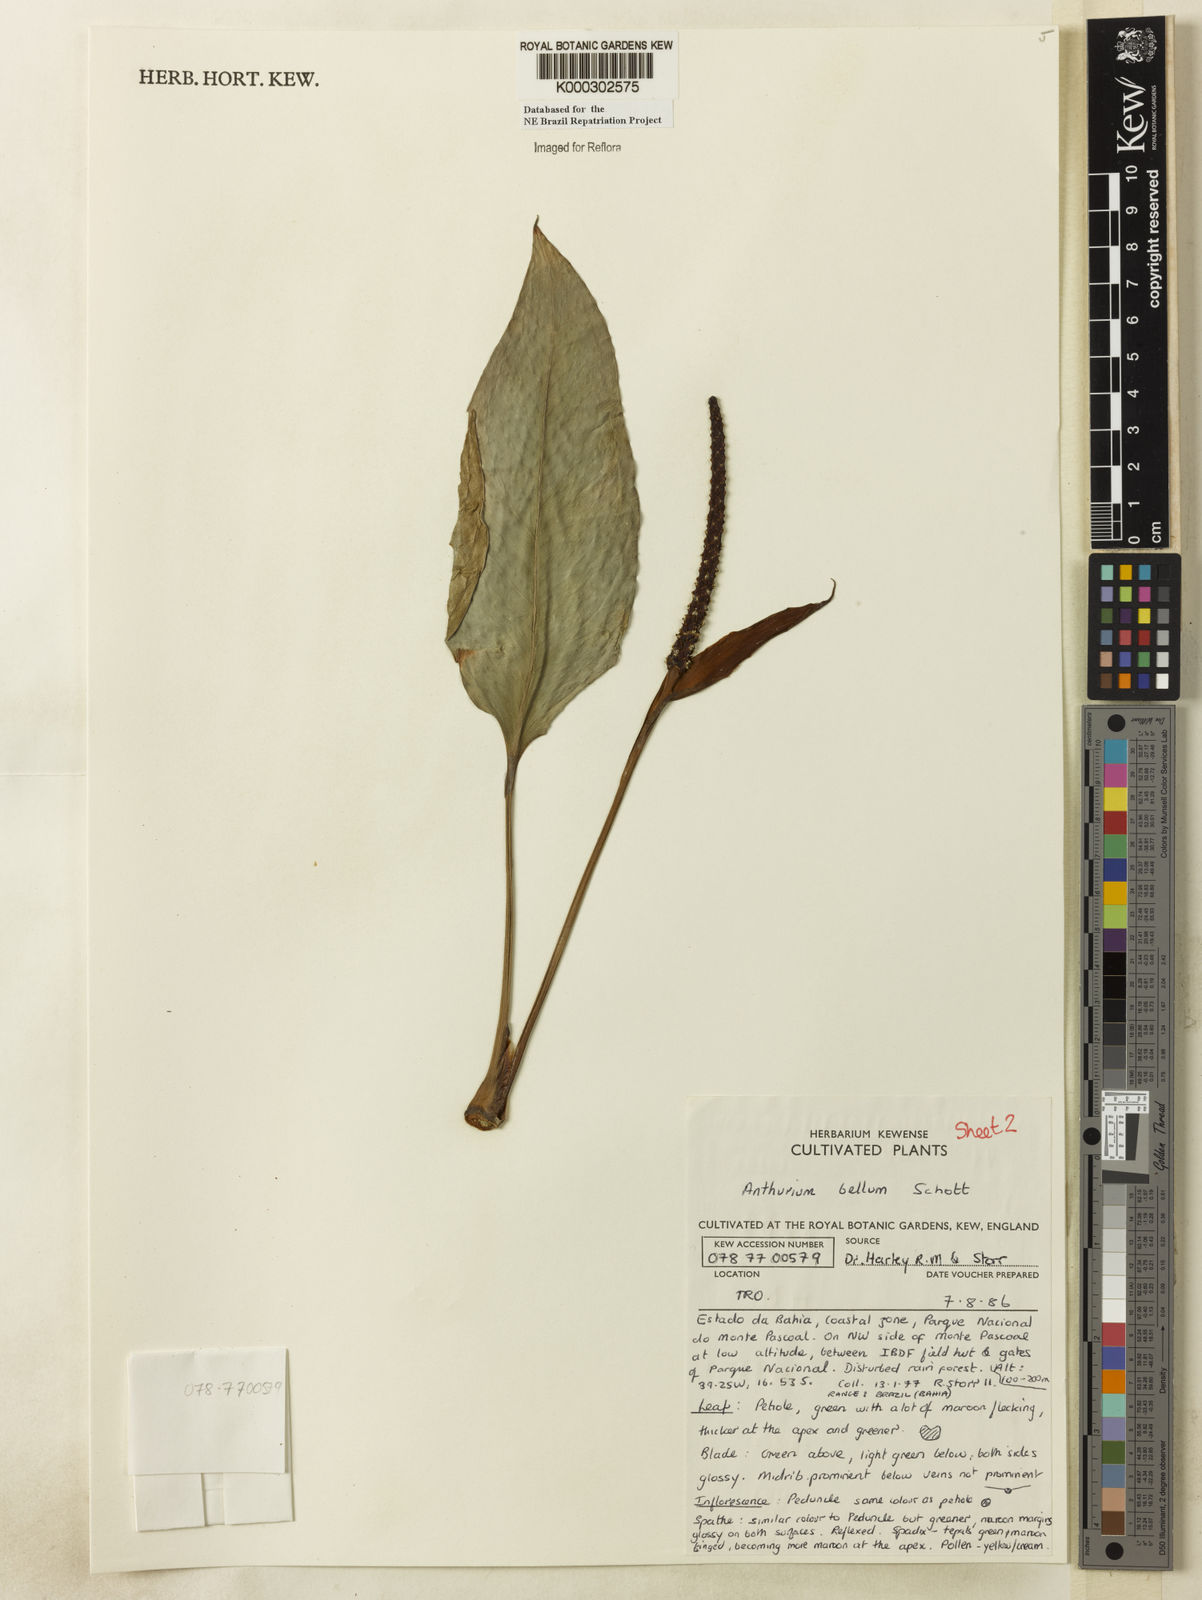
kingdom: Plantae
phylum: Tracheophyta
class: Liliopsida
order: Alismatales
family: Araceae
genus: Anthurium
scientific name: Anthurium bellum
